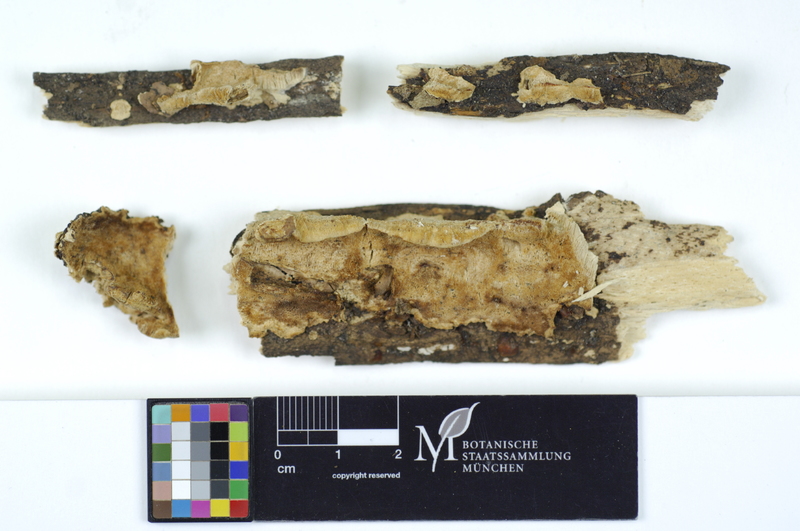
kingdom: Fungi
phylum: Basidiomycota
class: Agaricomycetes
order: Polyporales
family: Steccherinaceae
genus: Antrodiella
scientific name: Antrodiella serpula
